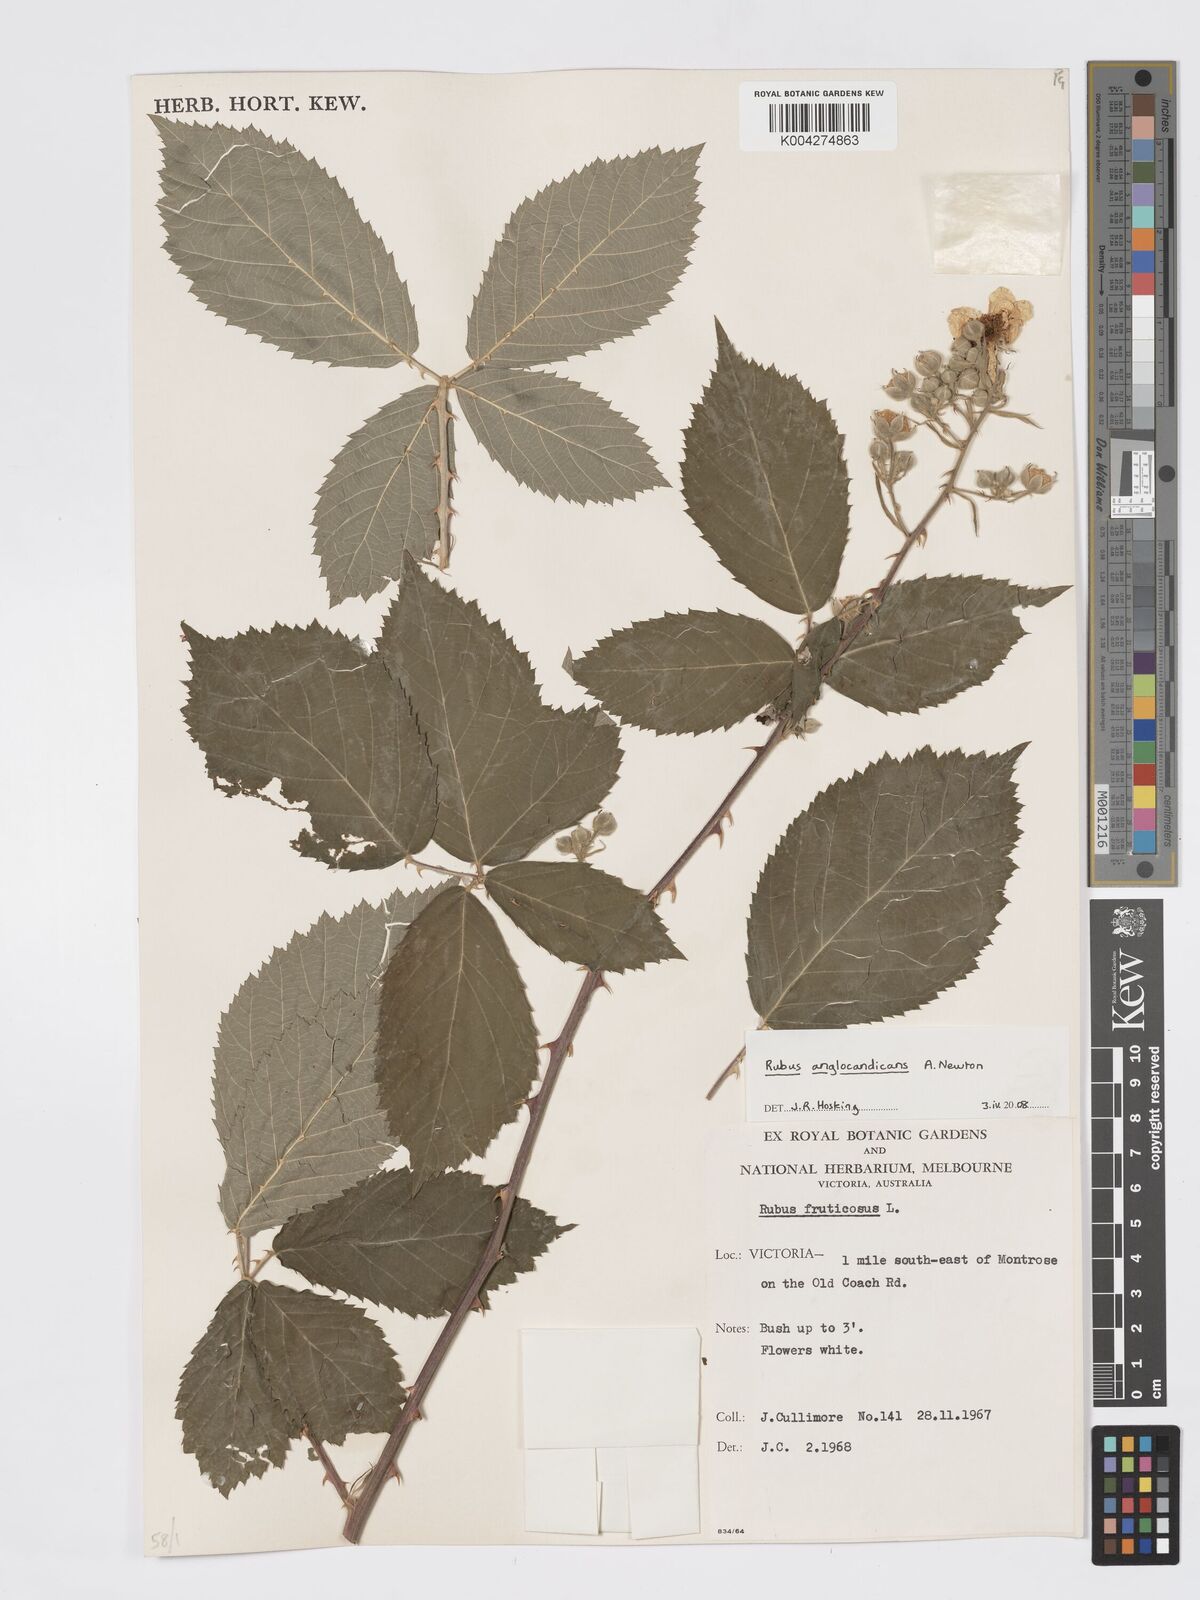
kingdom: Plantae
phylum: Tracheophyta
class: Magnoliopsida
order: Rosales
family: Rosaceae
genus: Rubus
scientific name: Rubus anglocandicans
